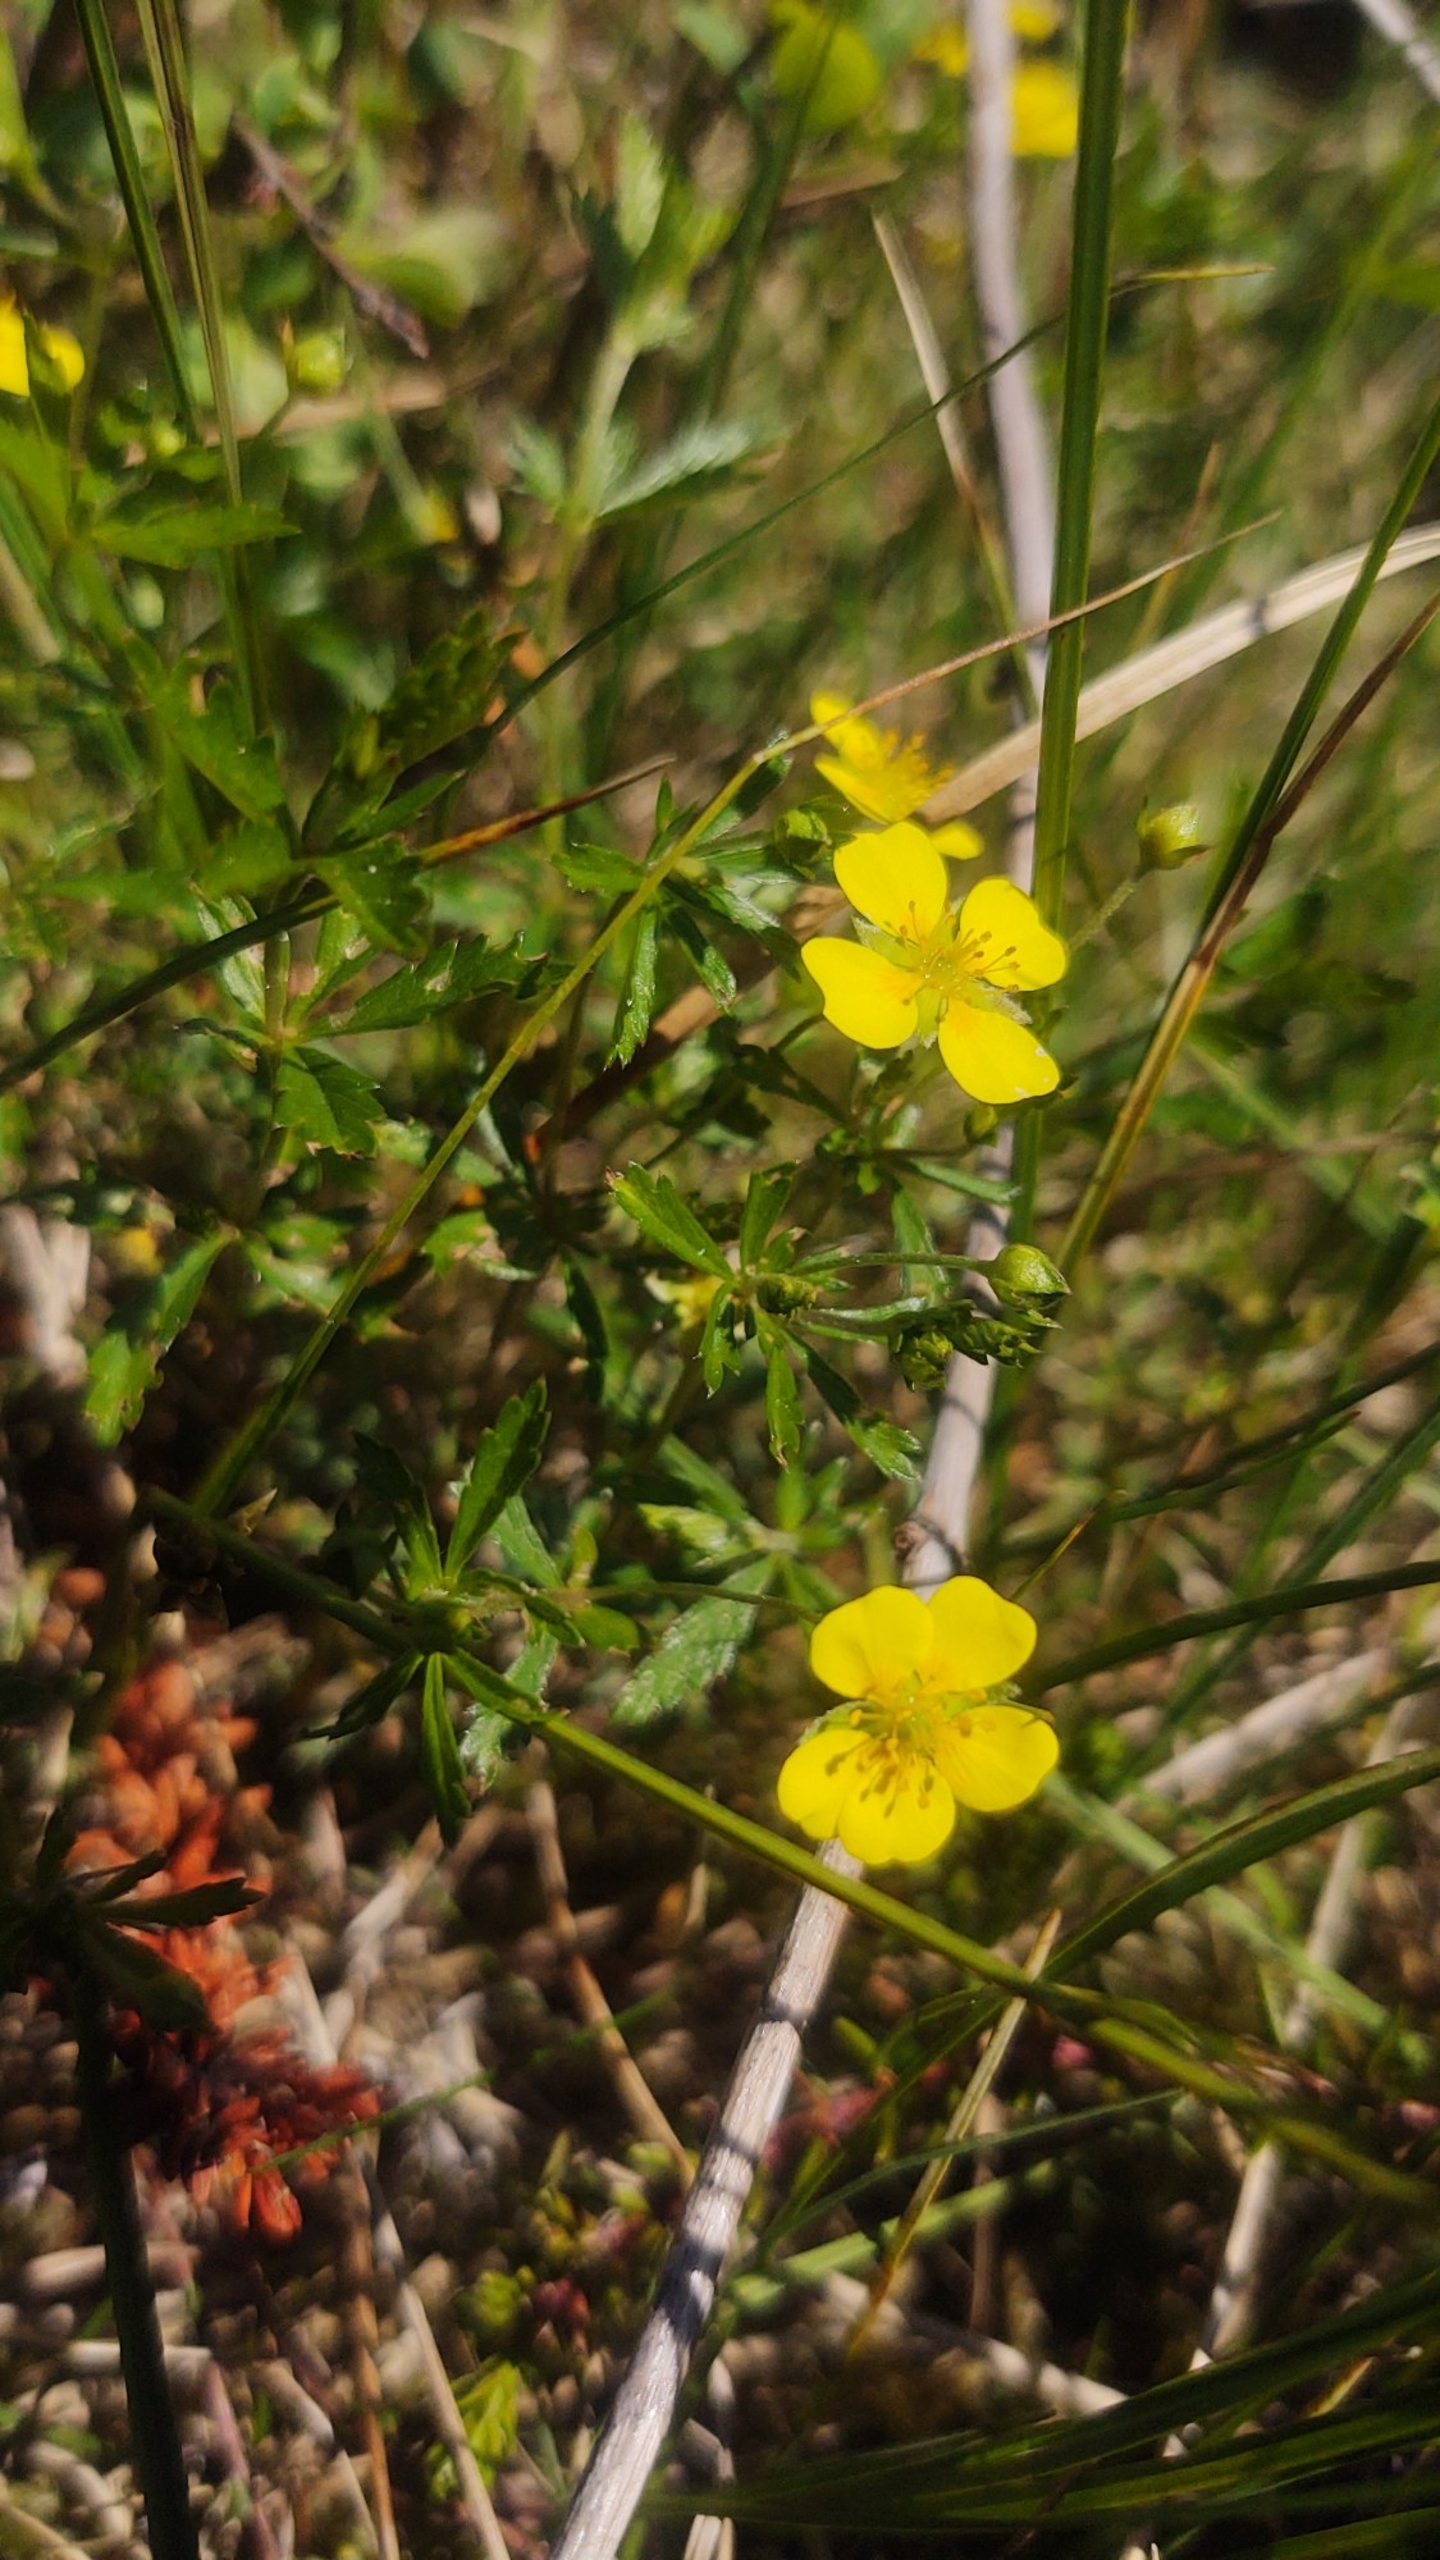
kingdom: Plantae
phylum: Tracheophyta
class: Magnoliopsida
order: Rosales
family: Rosaceae
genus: Potentilla
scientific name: Potentilla erecta
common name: Tormentil
